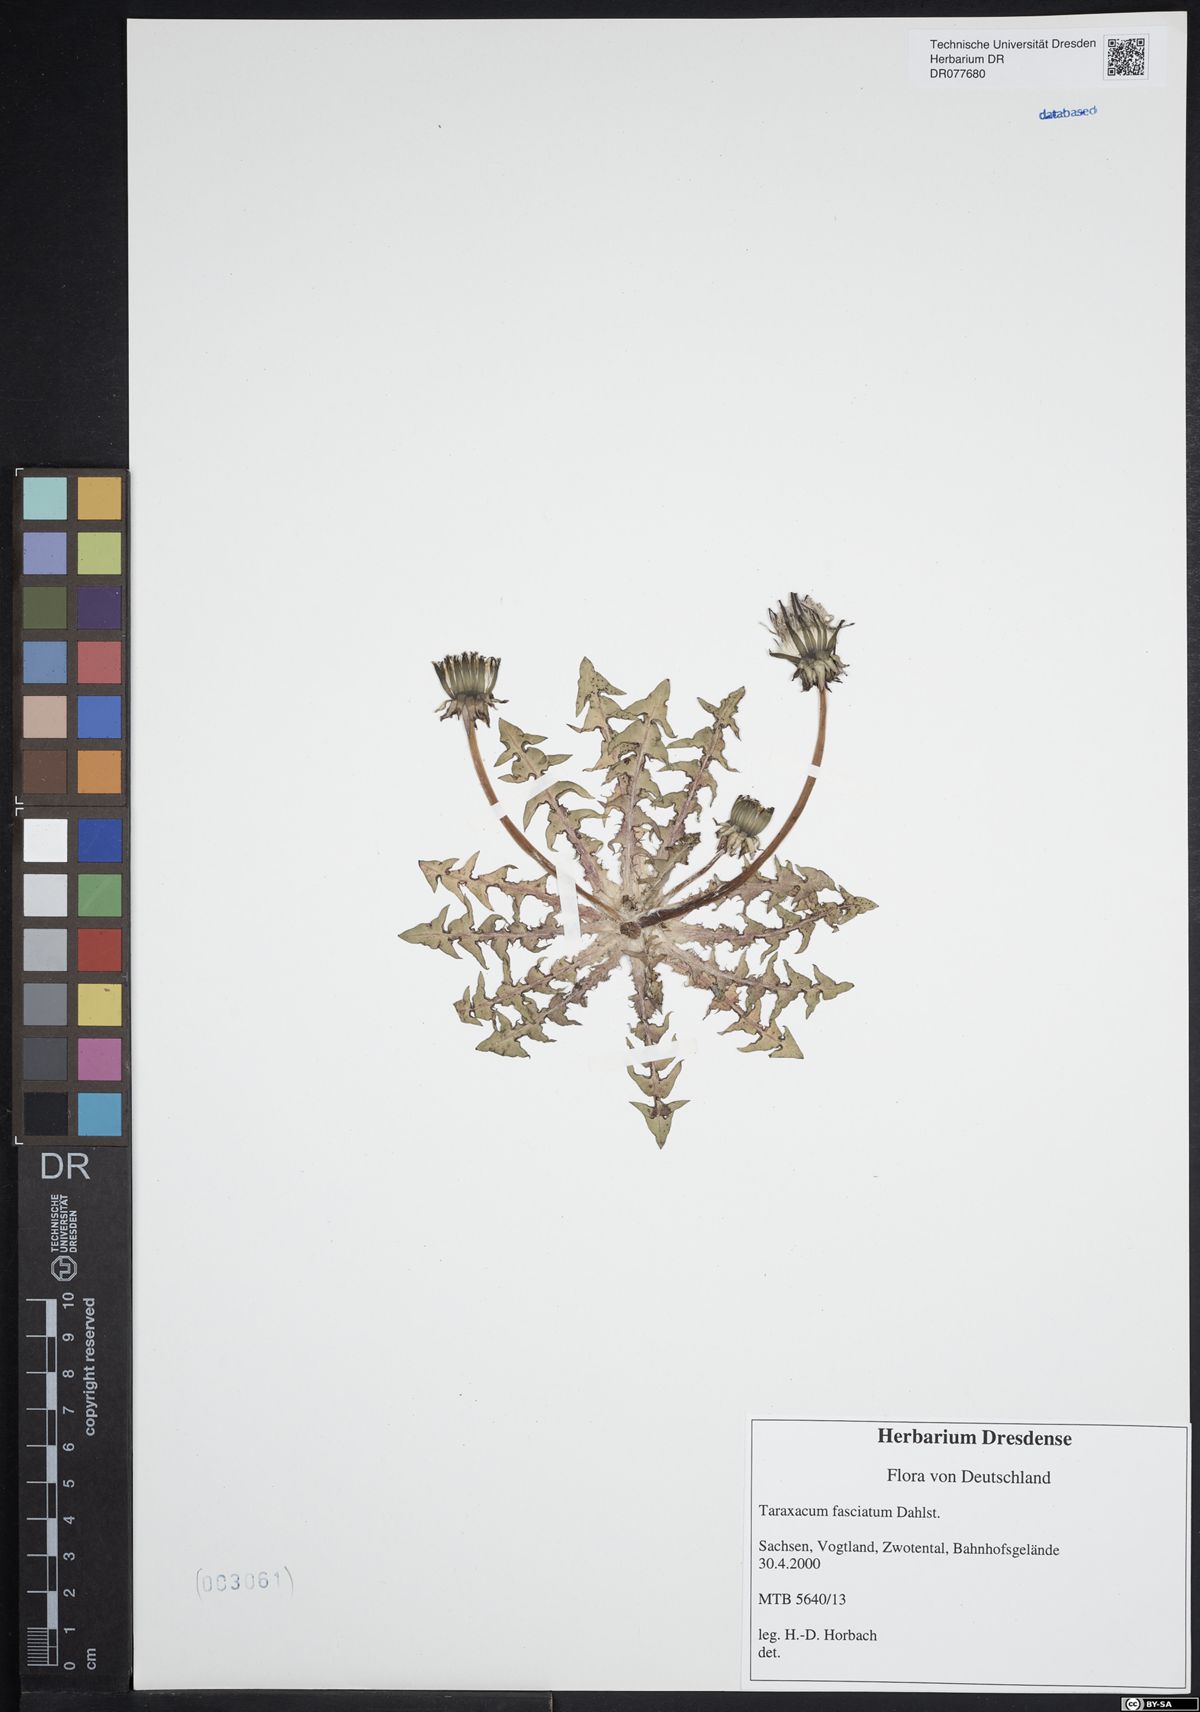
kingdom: Plantae
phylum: Tracheophyta
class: Magnoliopsida
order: Asterales
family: Asteraceae
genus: Taraxacum
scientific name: Taraxacum fasciatum
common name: Dense-bracted dandelion
